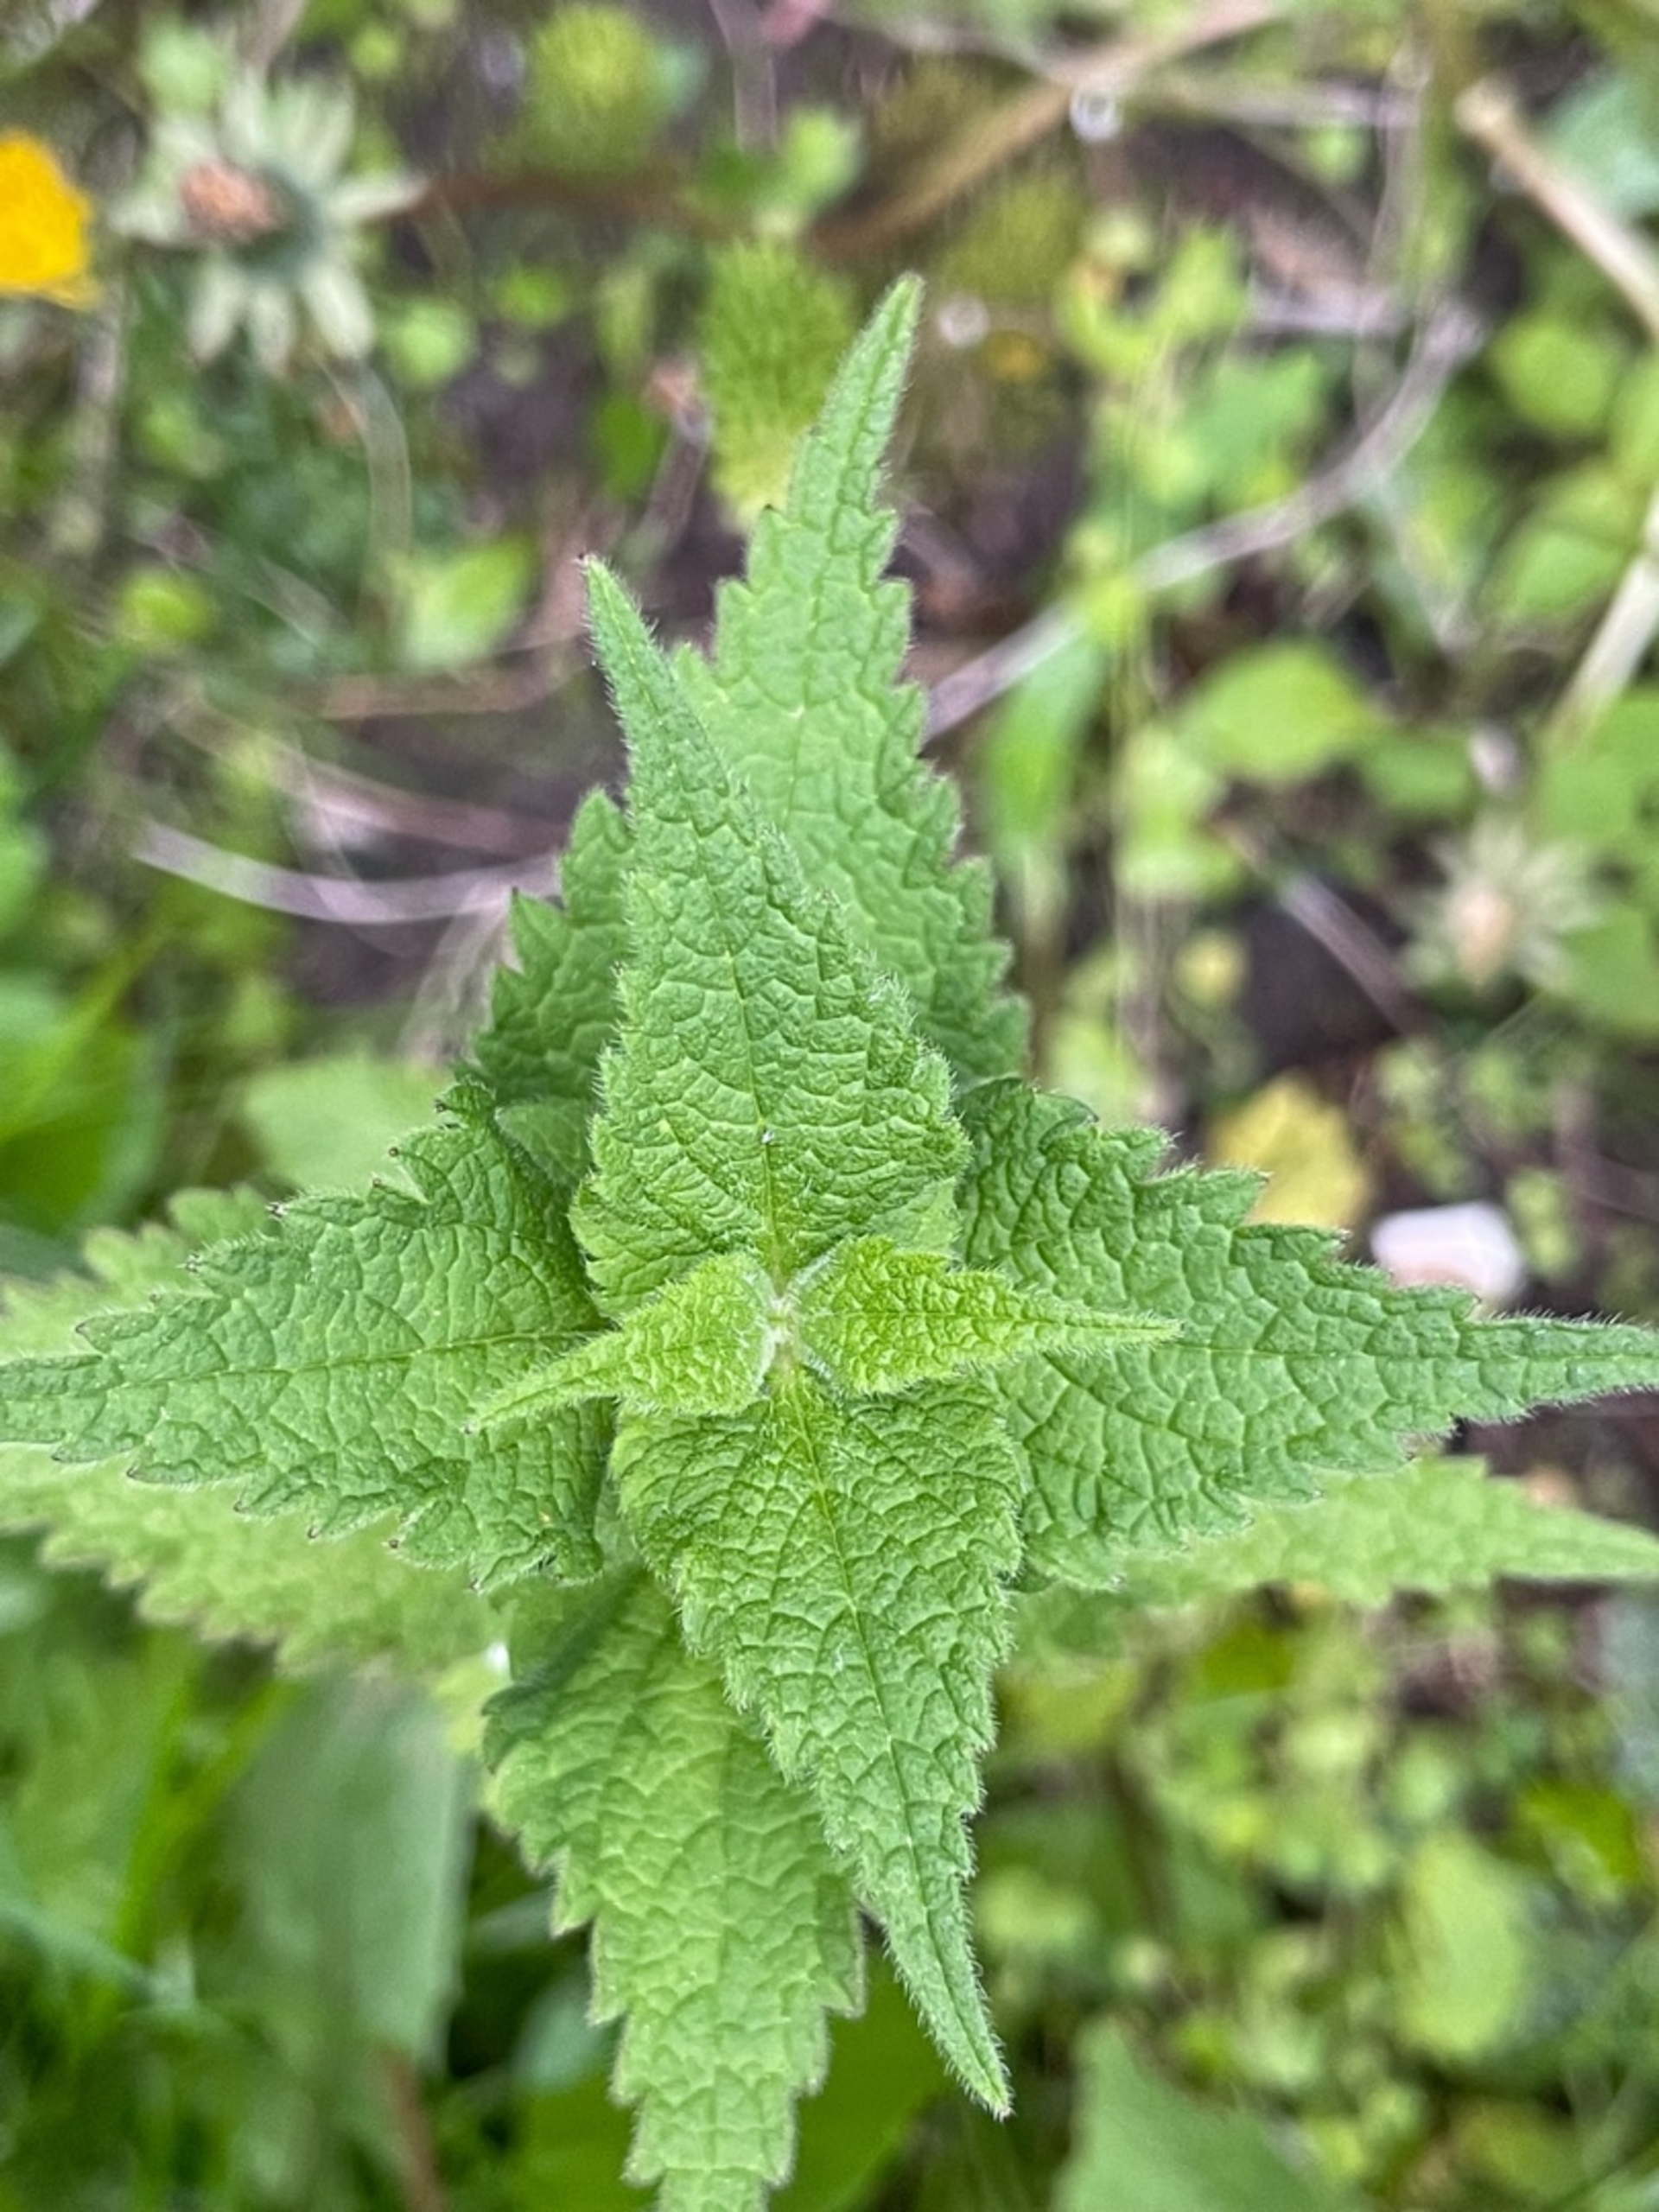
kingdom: Plantae
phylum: Tracheophyta
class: Magnoliopsida
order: Lamiales
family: Lamiaceae
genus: Lamium
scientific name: Lamium album
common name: Døvnælde
